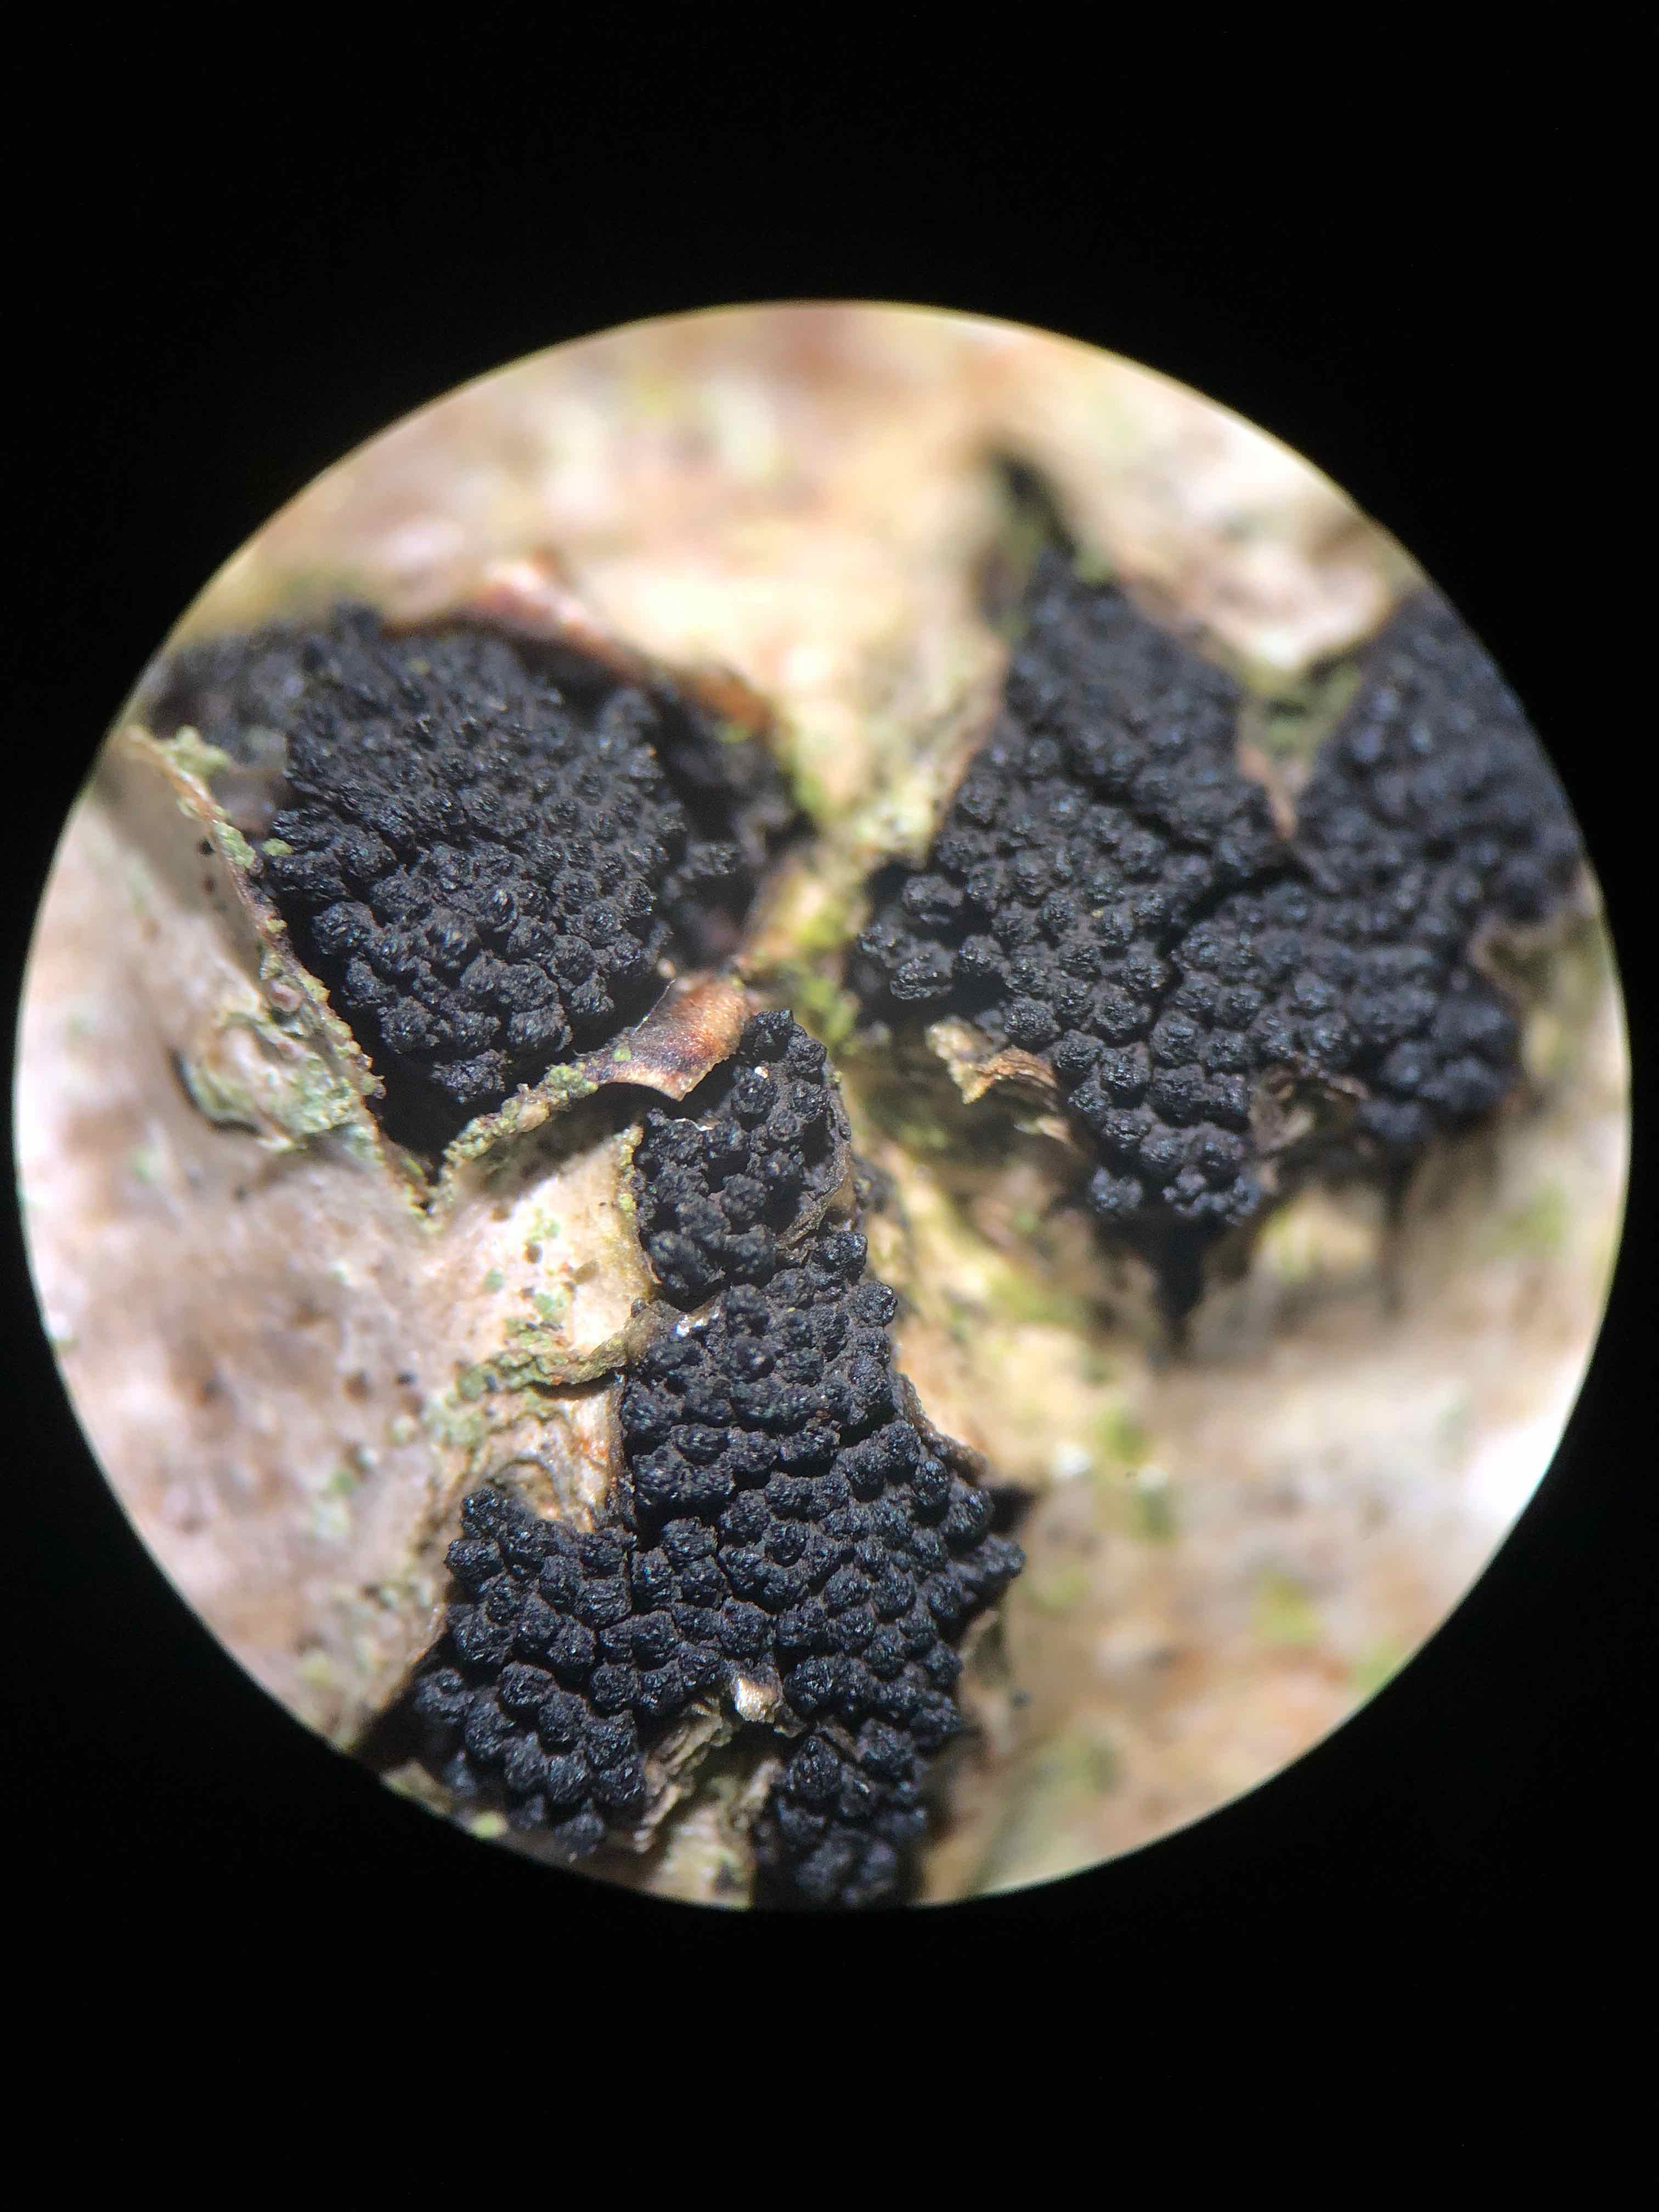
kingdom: Fungi
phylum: Ascomycota
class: Sordariomycetes
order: Xylariales
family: Diatrypaceae
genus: Eutypella
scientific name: Eutypella sorbi
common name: rønne-kulskorpe
